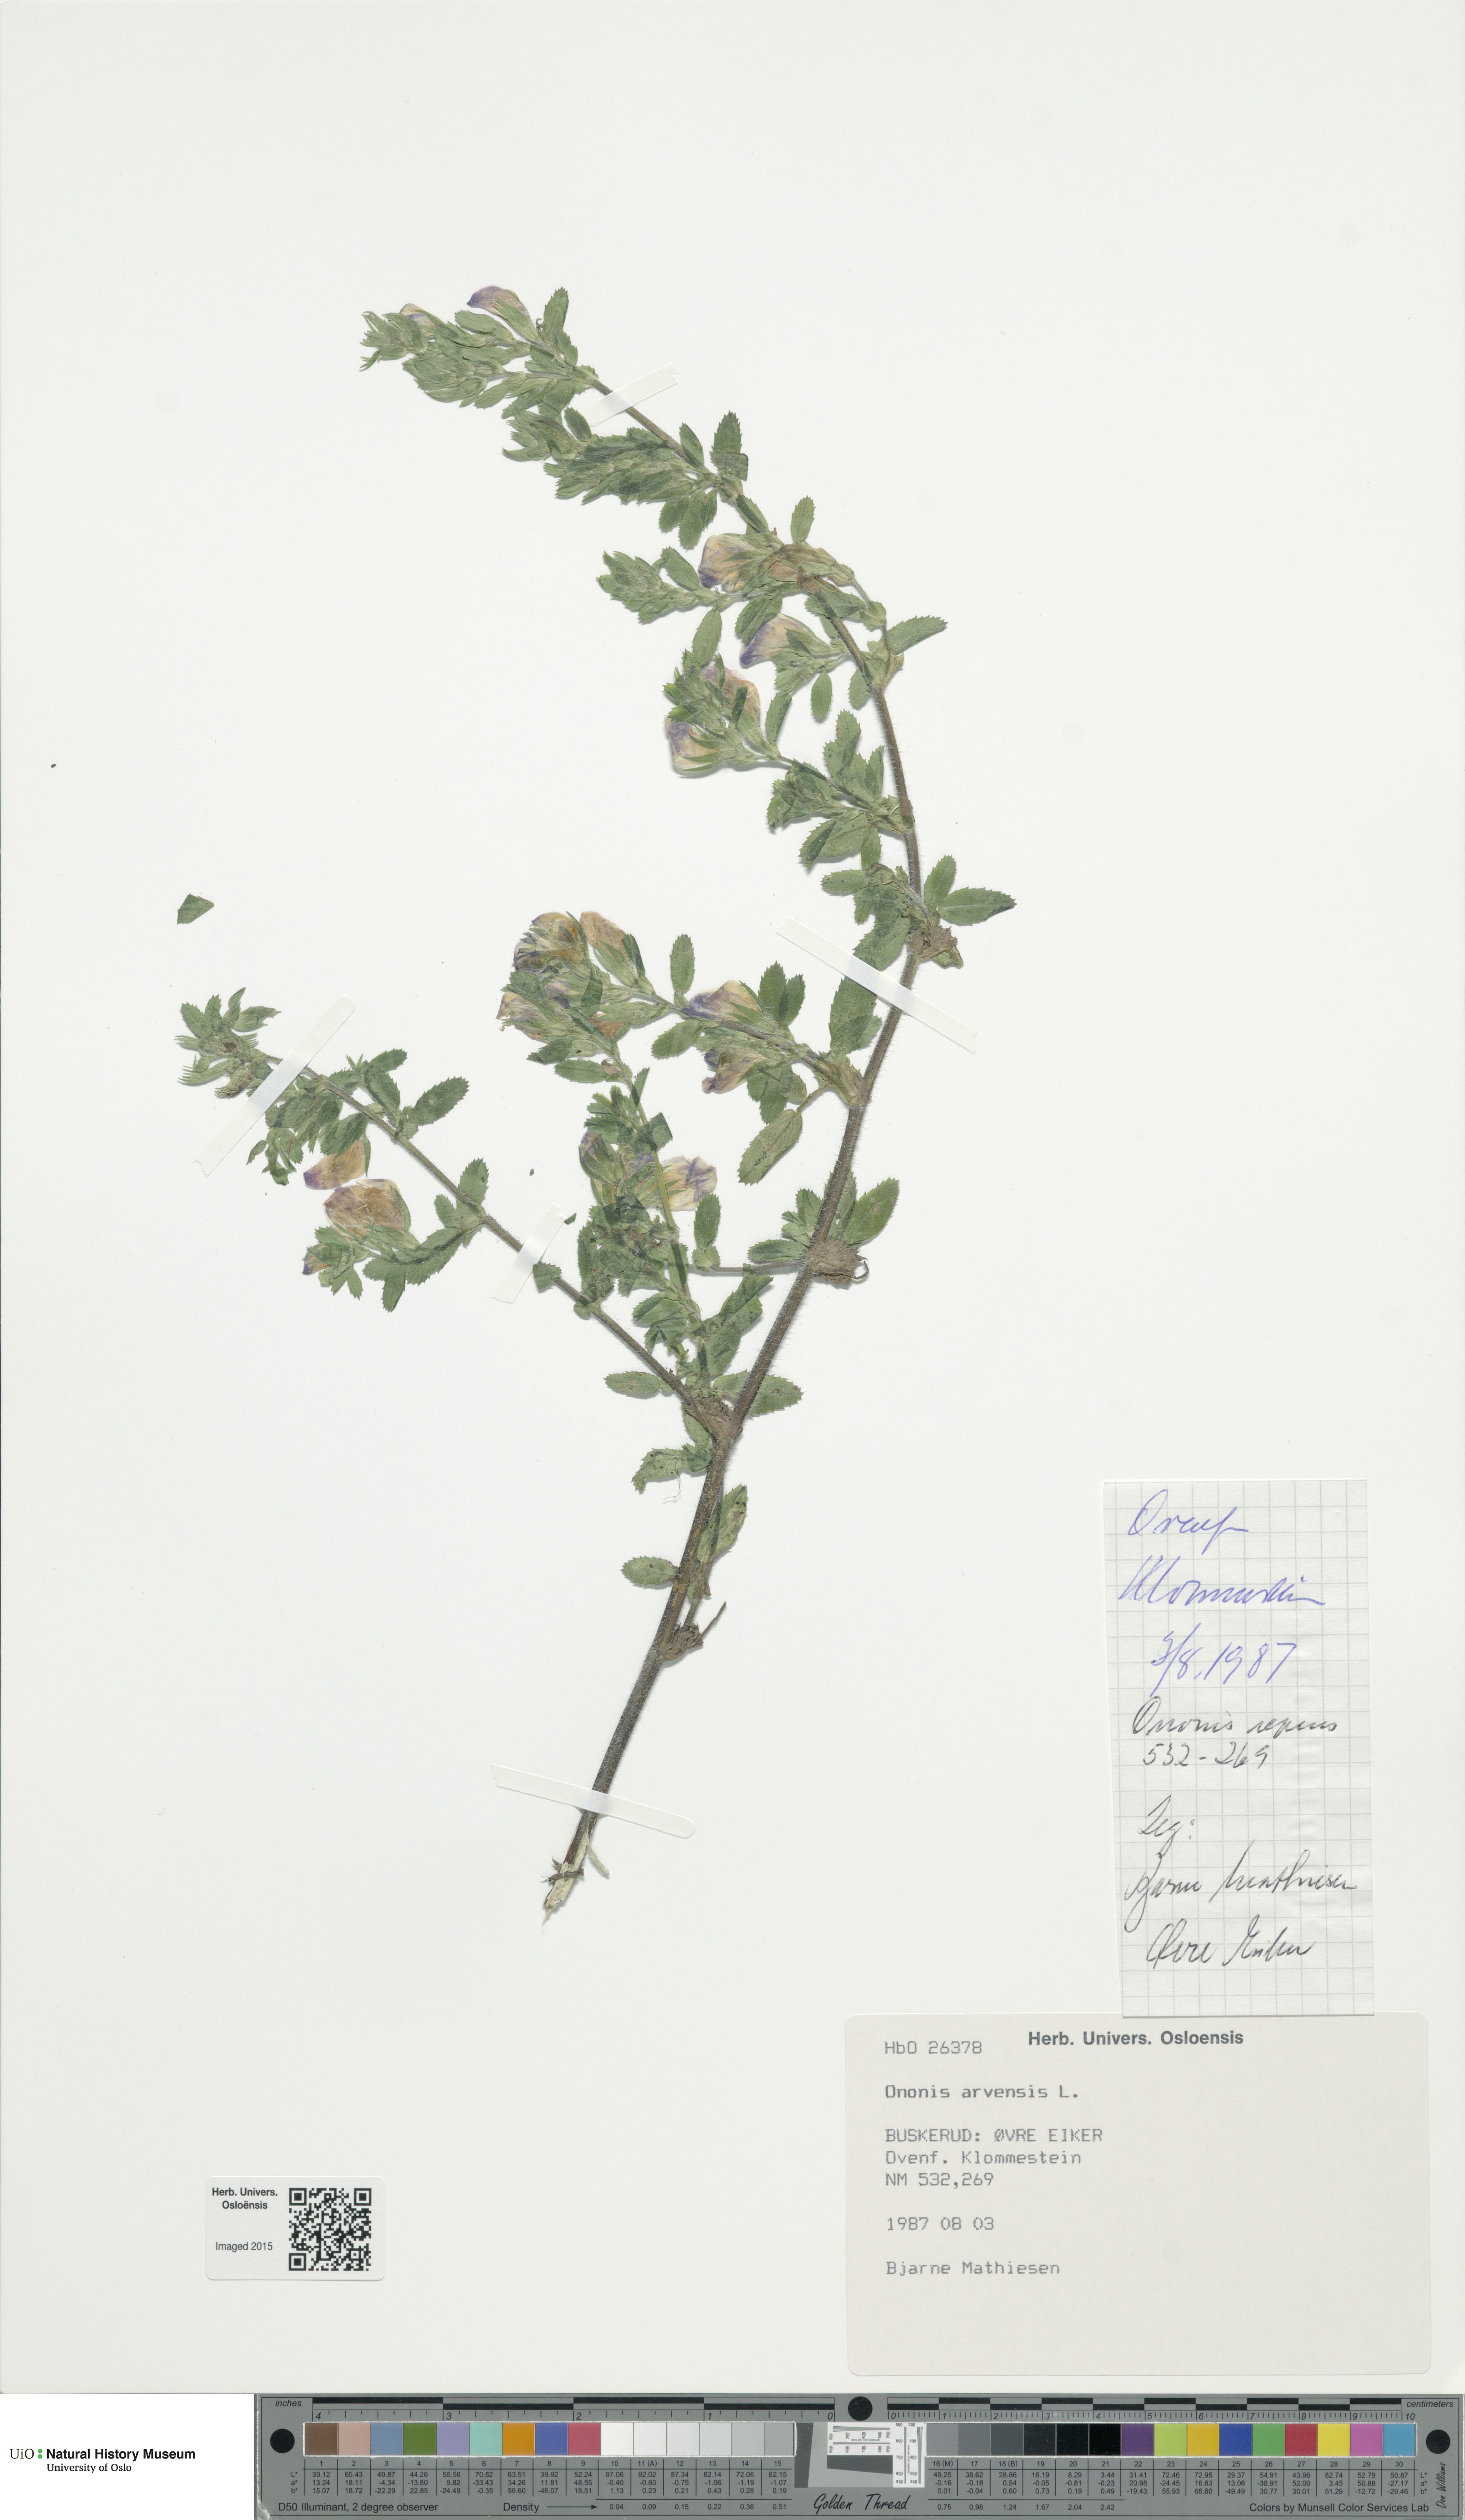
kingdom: Plantae
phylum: Tracheophyta
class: Magnoliopsida
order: Fabales
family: Fabaceae
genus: Ononis
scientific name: Ononis arvensis
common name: Field restharrow
